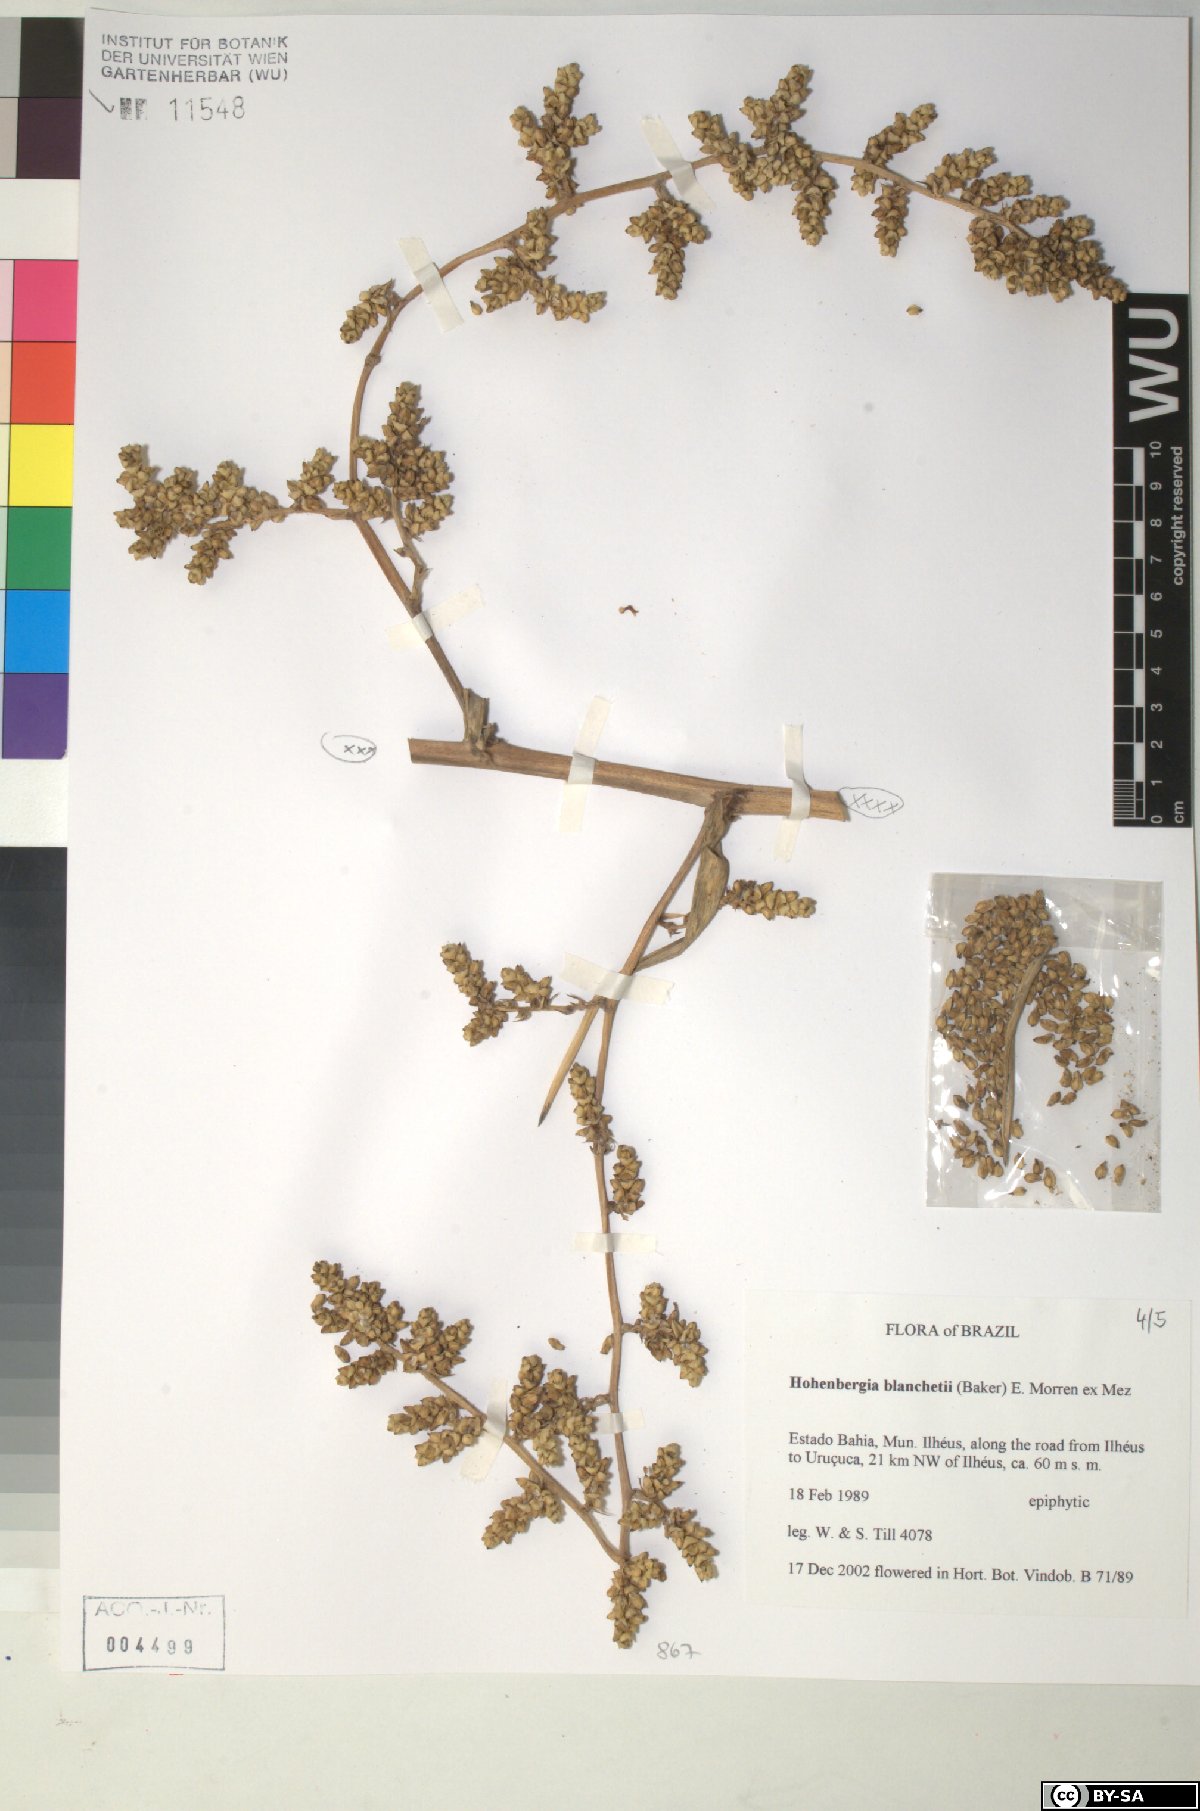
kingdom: Plantae
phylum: Tracheophyta
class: Liliopsida
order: Poales
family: Bromeliaceae
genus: Hohenbergia
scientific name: Hohenbergia blanchetii
